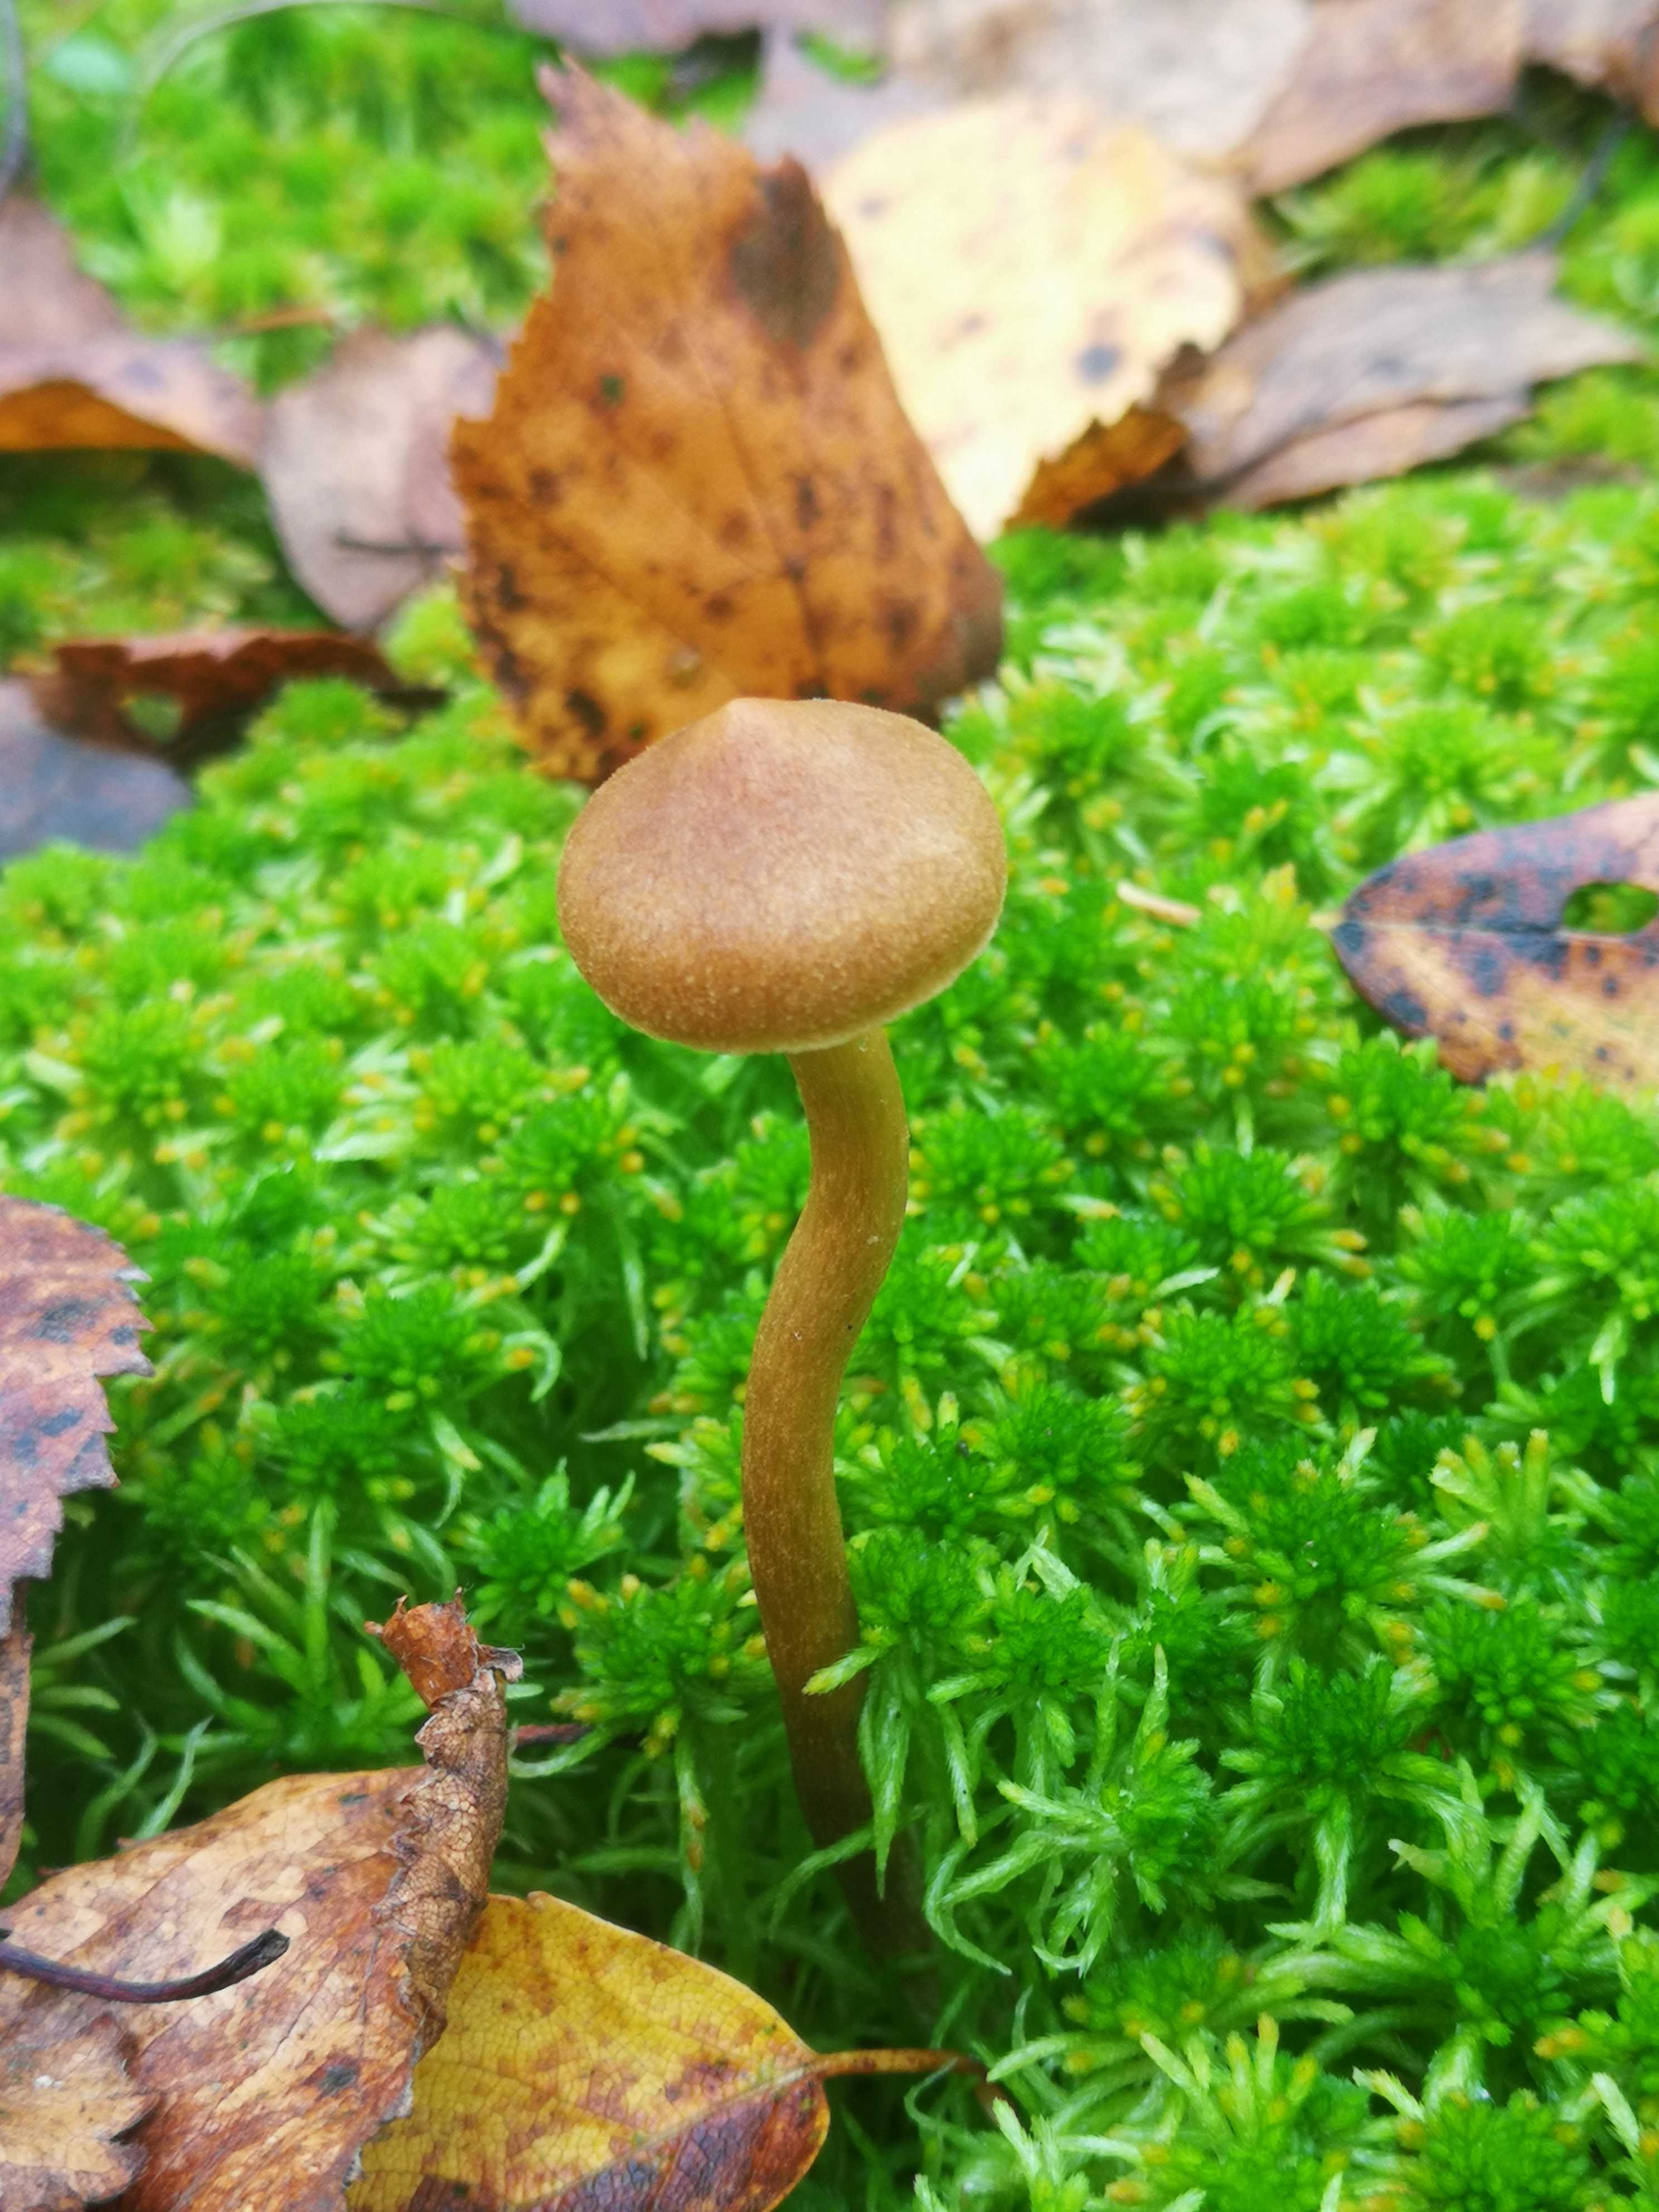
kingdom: Fungi
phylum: Basidiomycota
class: Agaricomycetes
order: Agaricales
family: Cortinariaceae
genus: Cortinarius
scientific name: Cortinarius subfusipes
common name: højmose-slørhat
